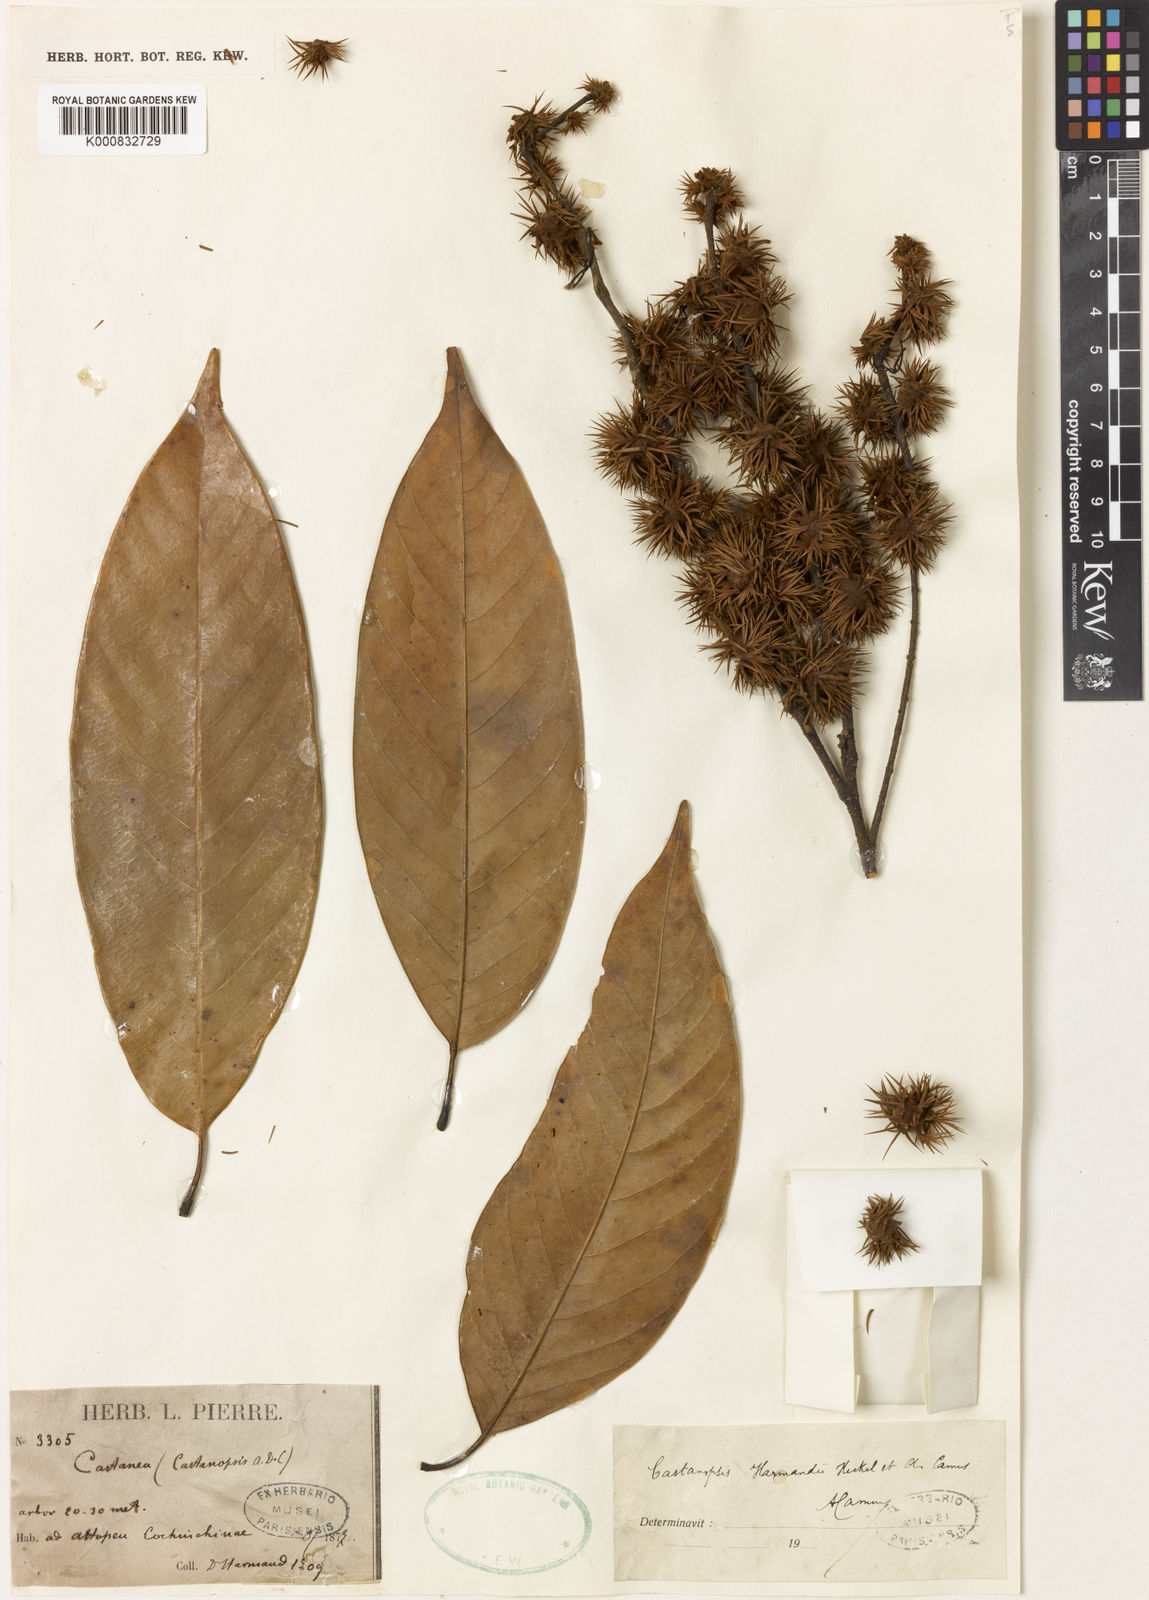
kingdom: Plantae
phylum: Tracheophyta
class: Magnoliopsida
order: Fagales
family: Fagaceae
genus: Castanopsis
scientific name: Castanopsis harmandii
